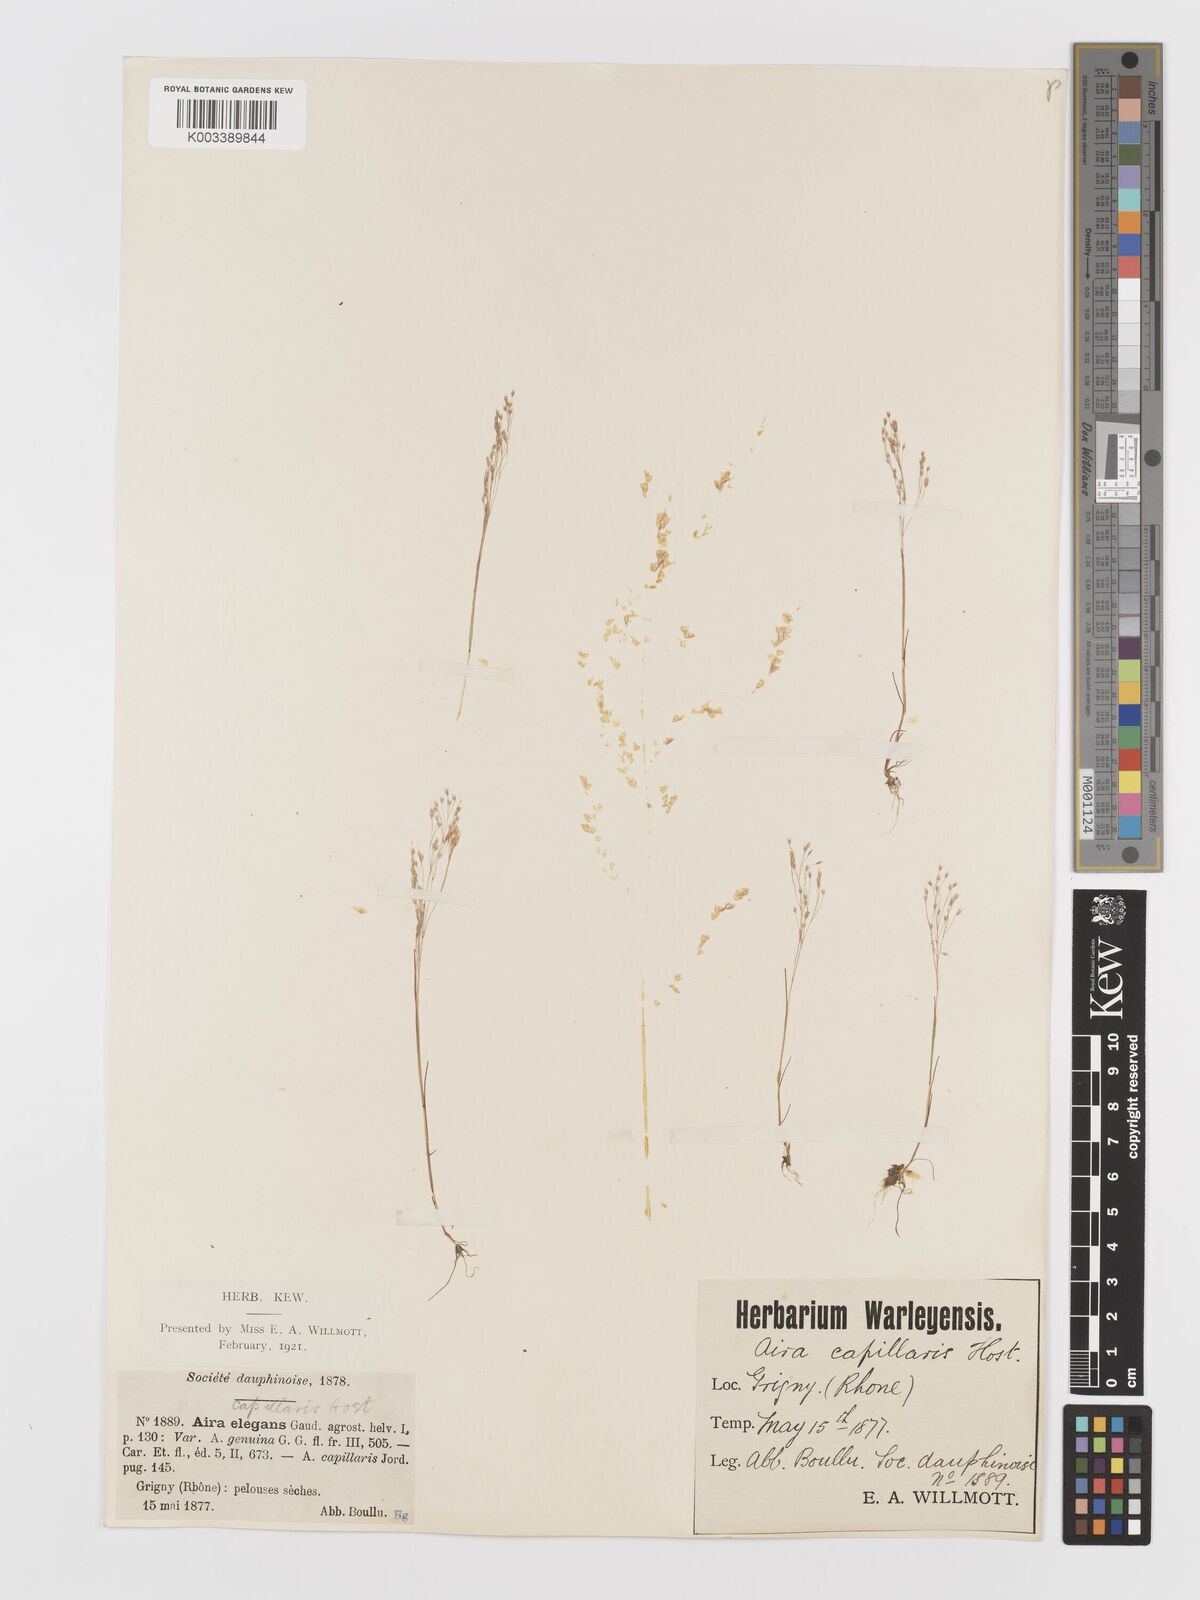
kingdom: Plantae
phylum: Tracheophyta
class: Liliopsida
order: Poales
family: Poaceae
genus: Aira
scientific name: Aira elegans
